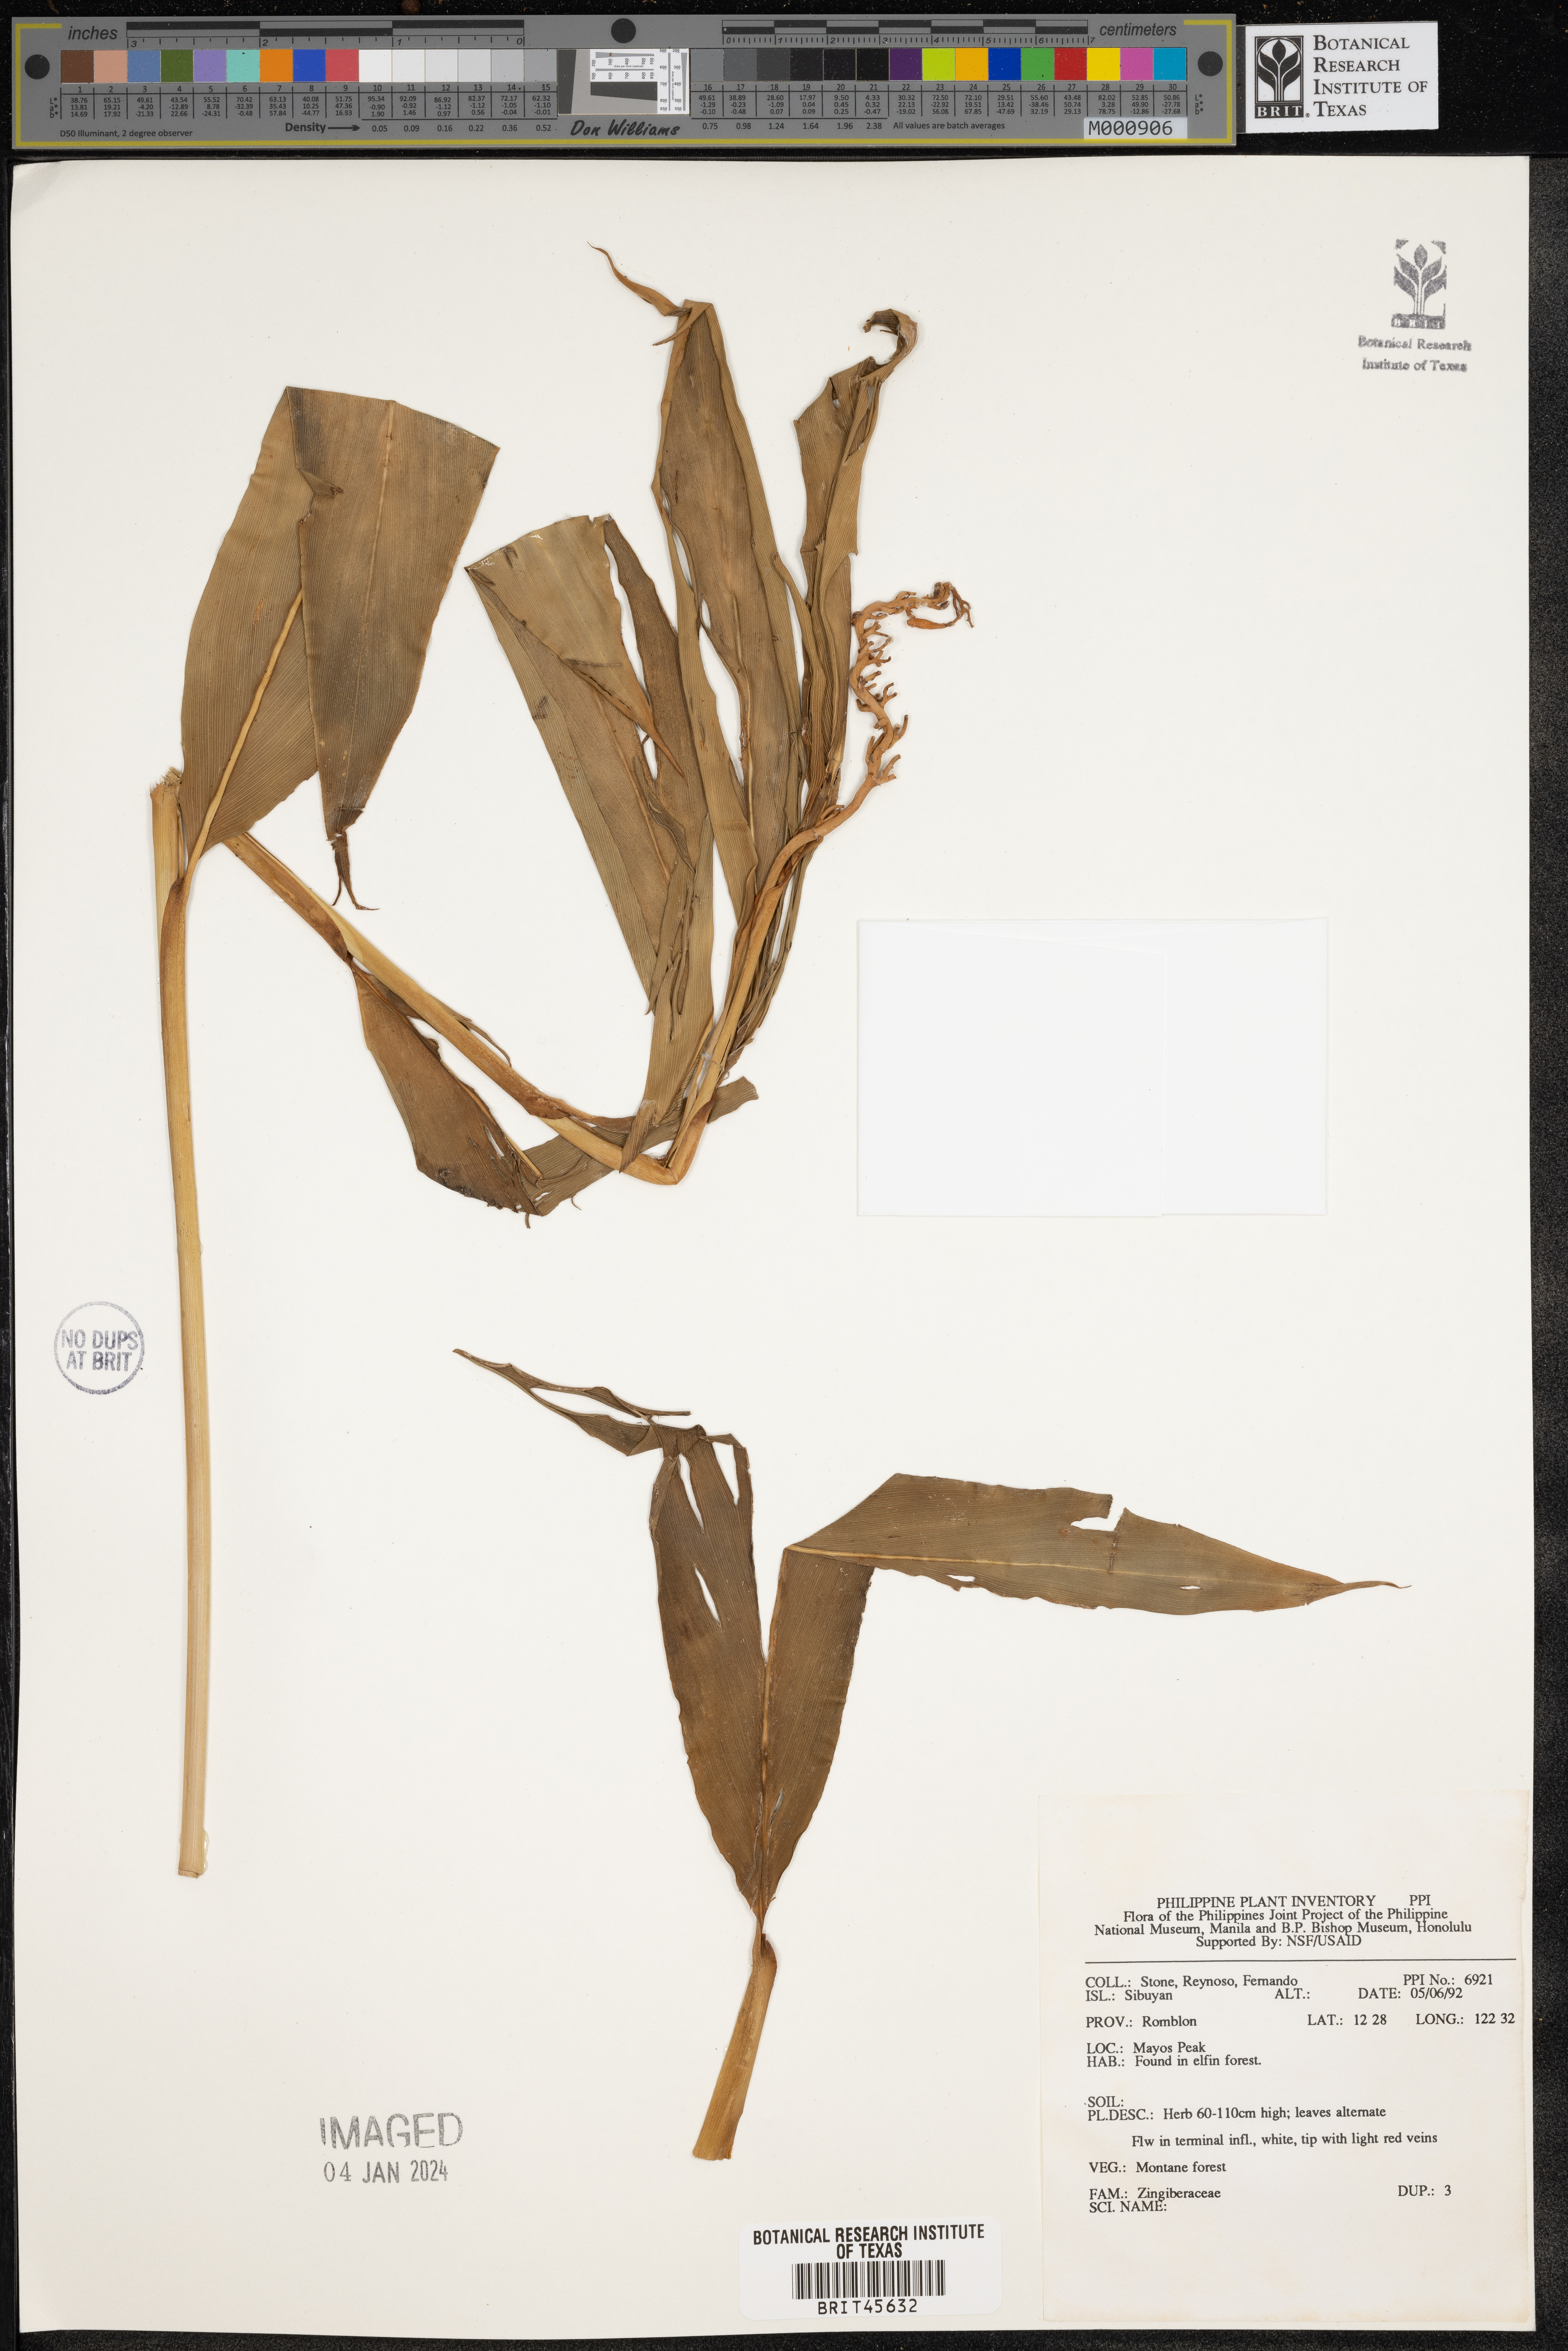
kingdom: Plantae
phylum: Tracheophyta
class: Liliopsida
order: Zingiberales
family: Zingiberaceae
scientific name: Zingiberaceae
